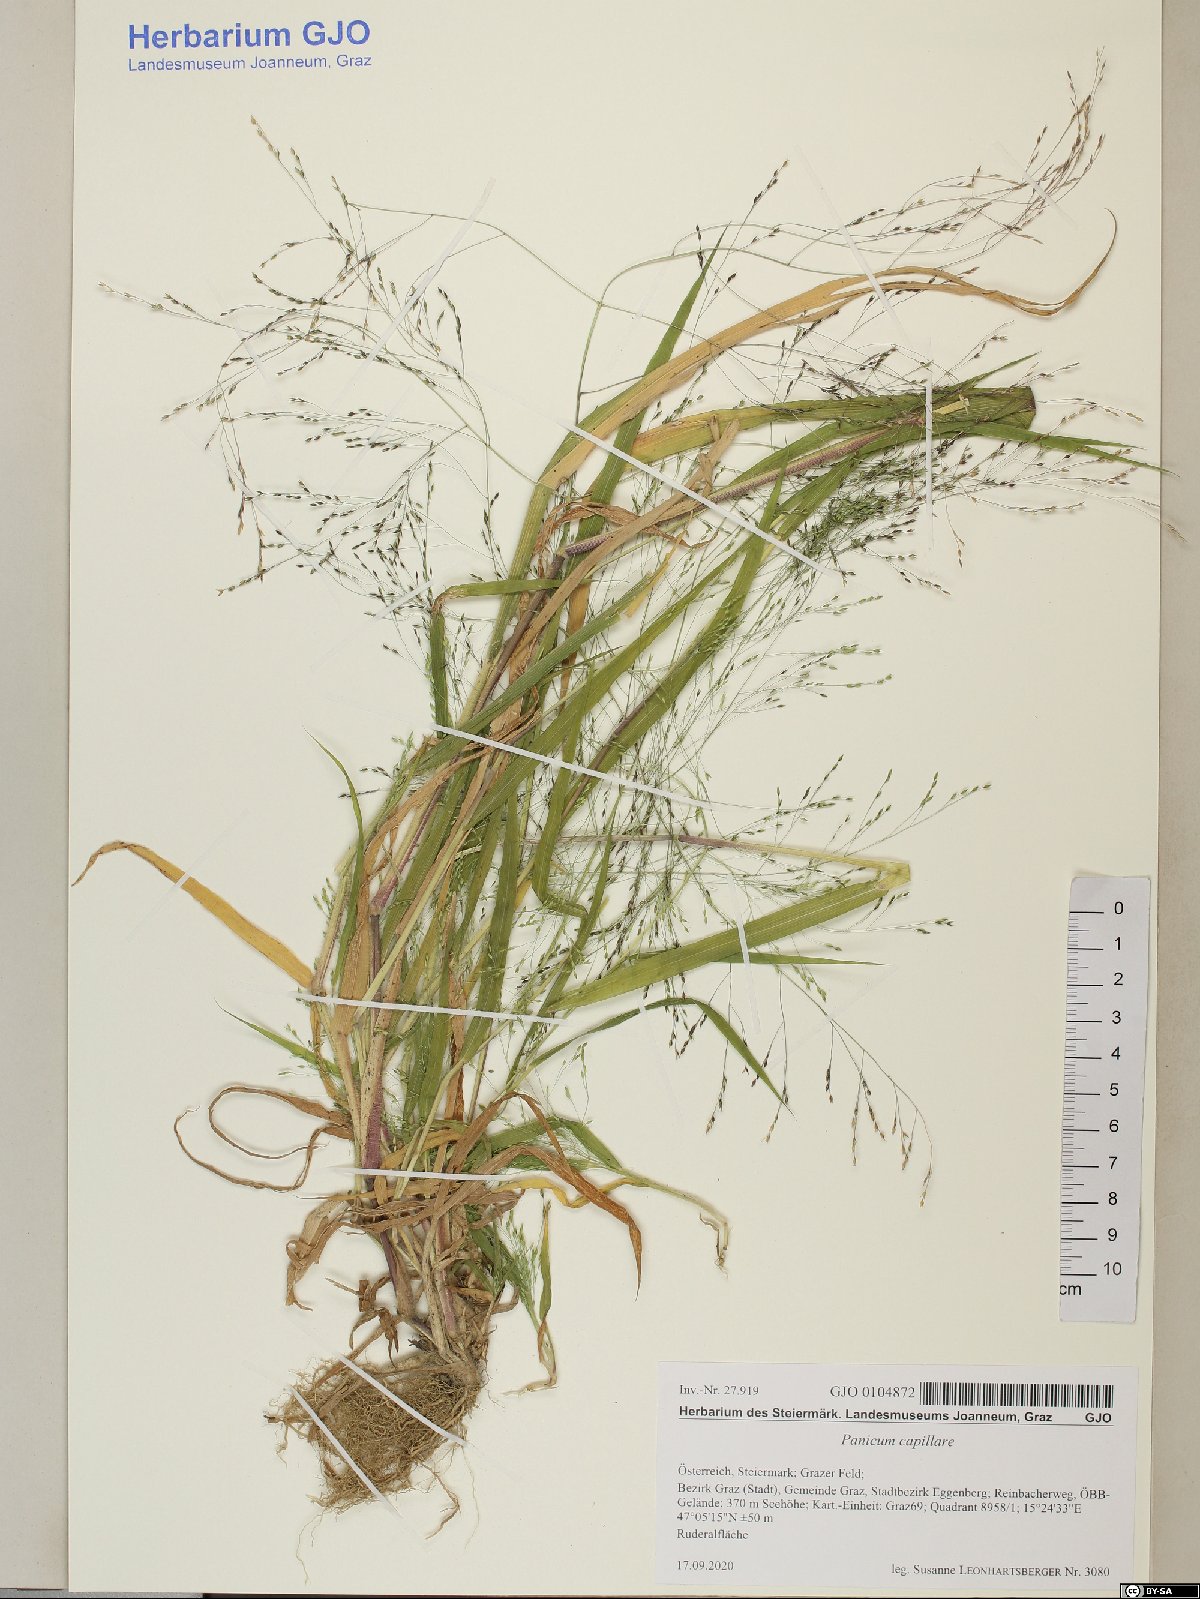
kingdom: Plantae
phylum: Tracheophyta
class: Liliopsida
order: Poales
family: Poaceae
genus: Panicum
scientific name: Panicum capillare
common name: Witch-grass
